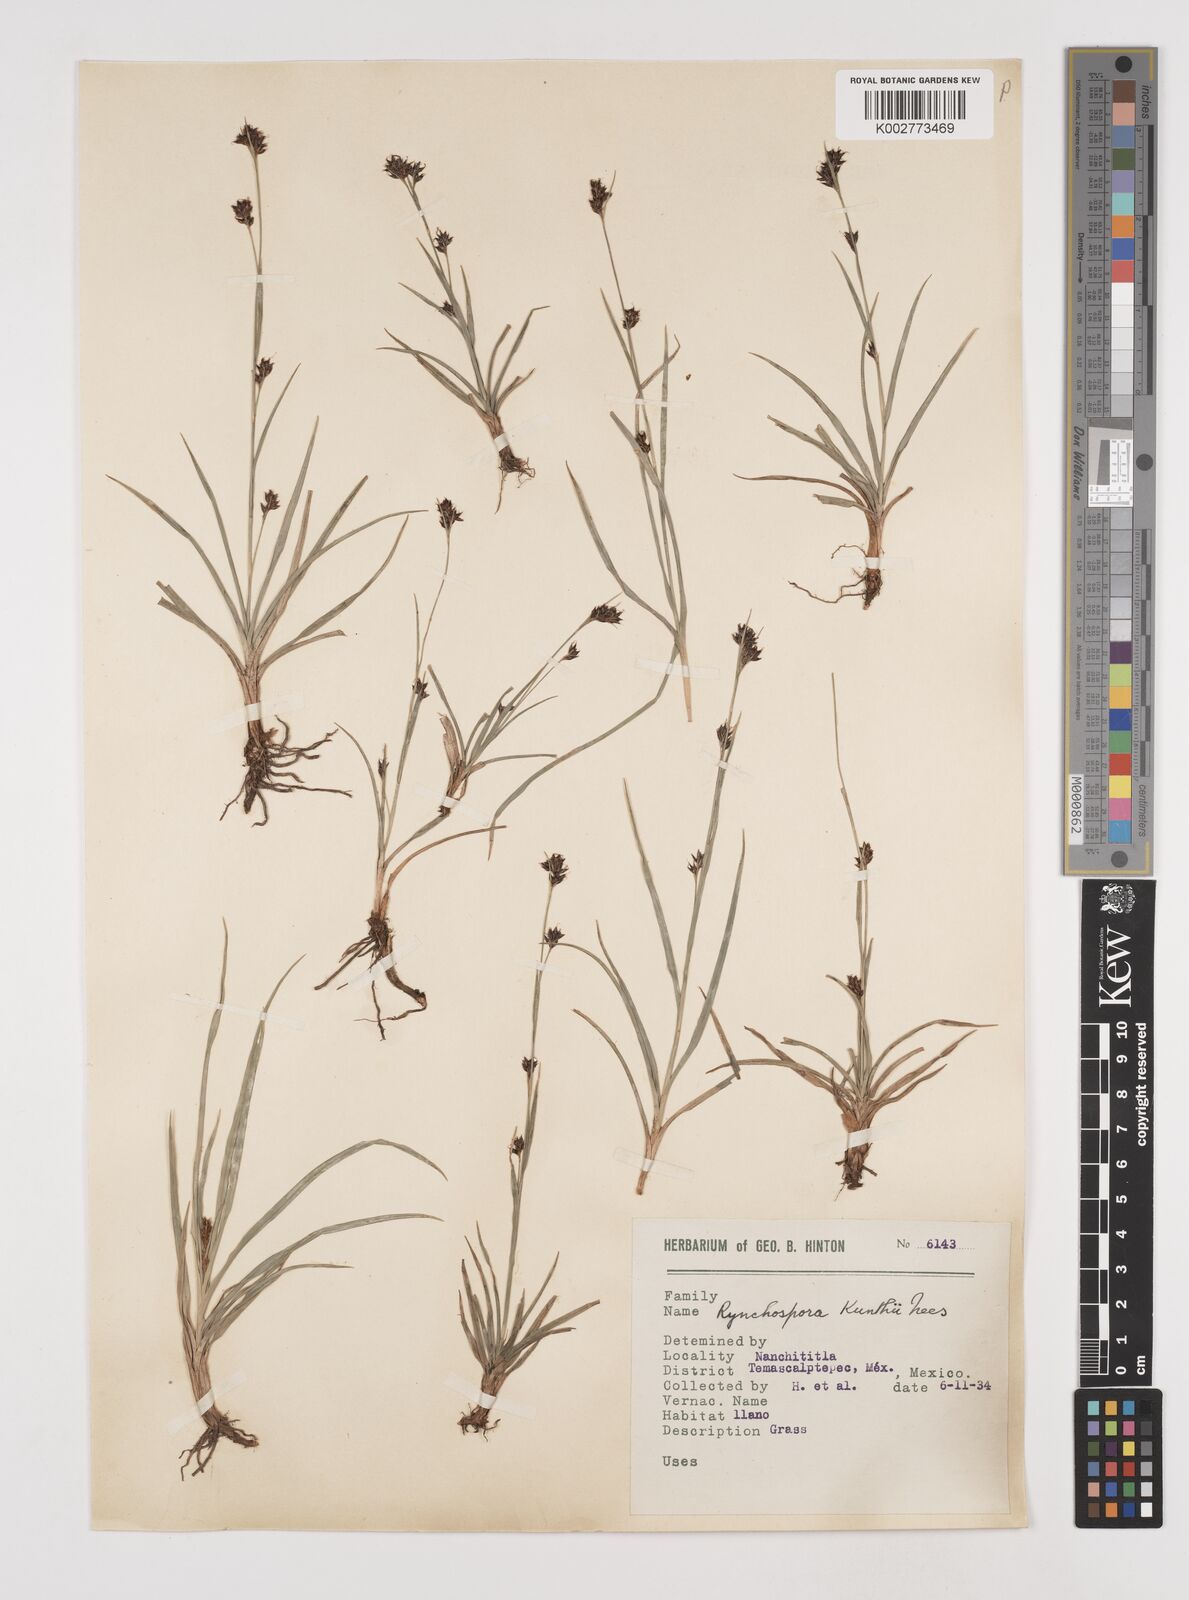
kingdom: Plantae
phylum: Tracheophyta
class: Liliopsida
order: Poales
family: Cyperaceae
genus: Rhynchospora
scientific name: Rhynchospora kunthii
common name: Kunth's beaksedge
